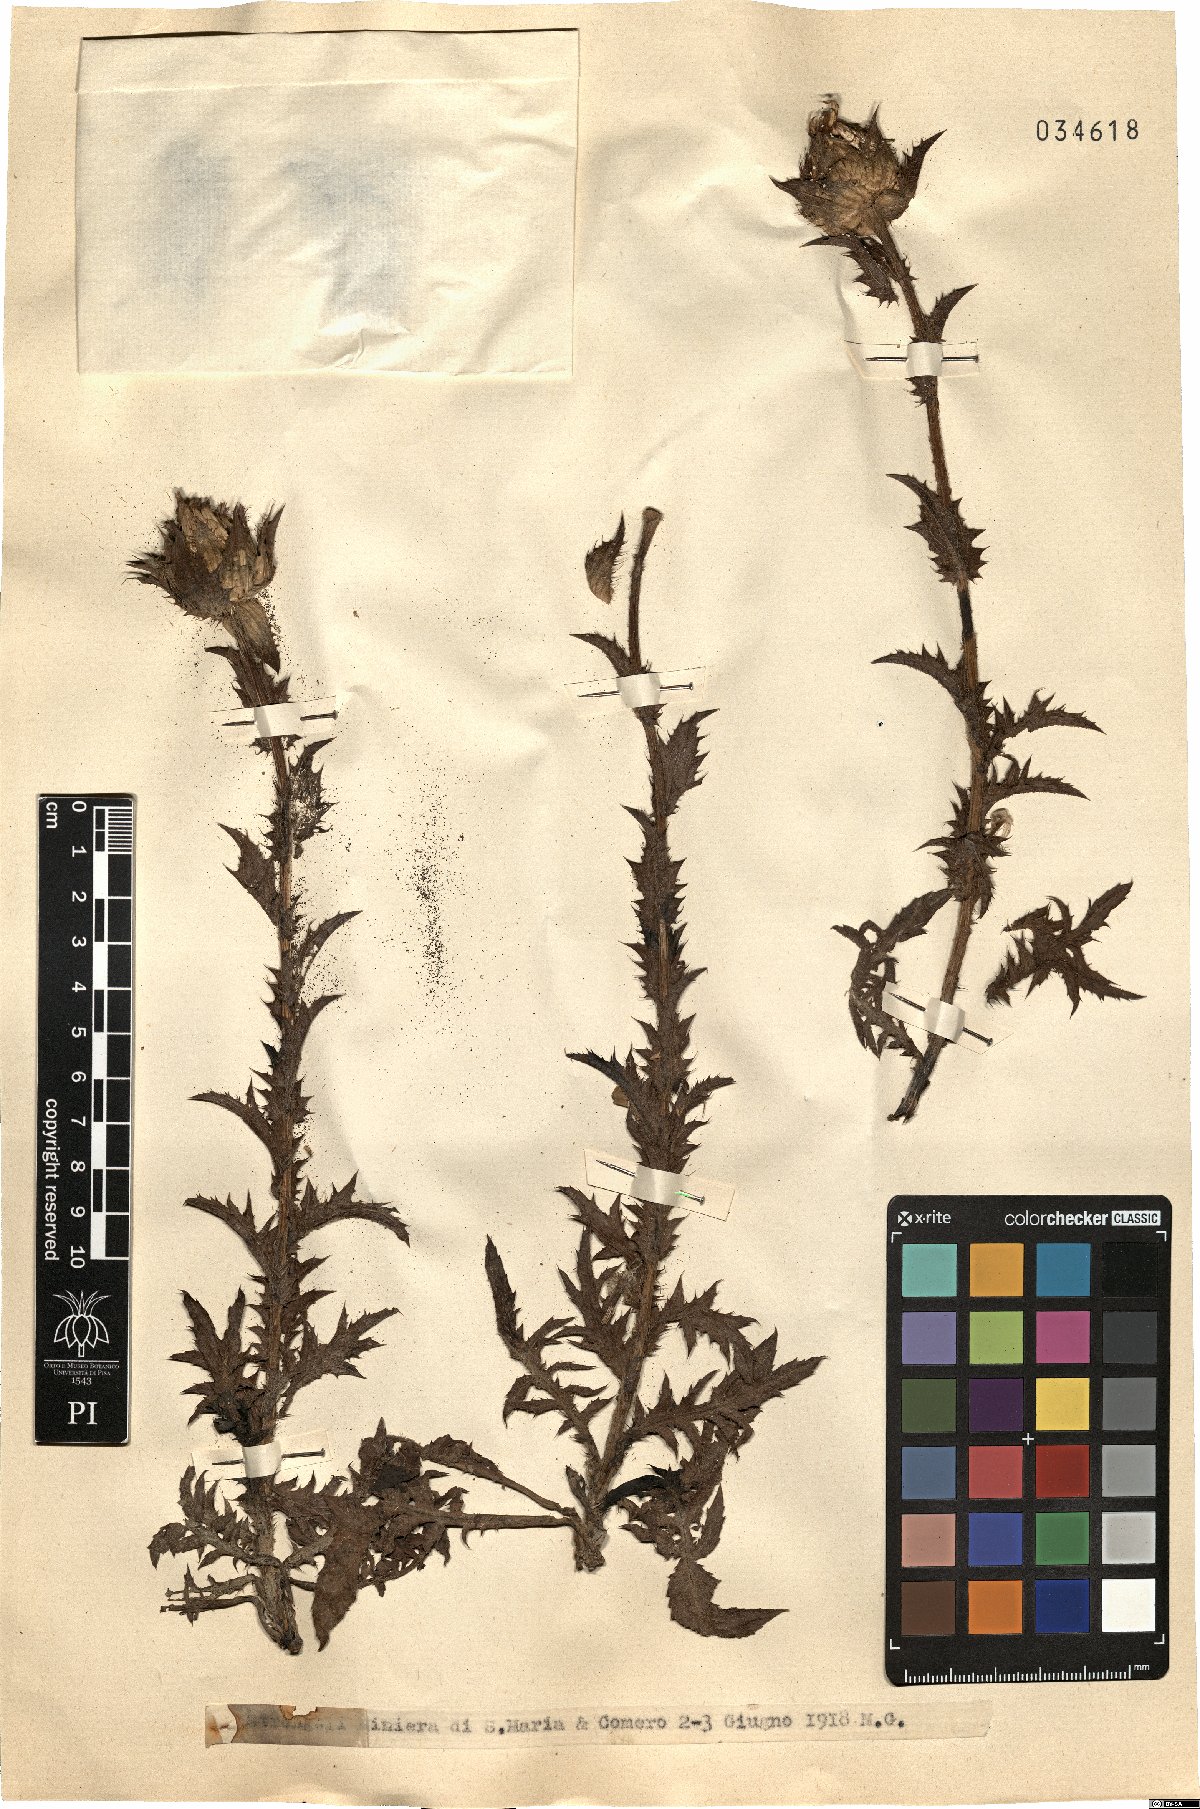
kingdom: Plantae
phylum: Tracheophyta
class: Magnoliopsida
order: Asterales
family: Asteraceae
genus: Carthamus
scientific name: Carthamus
